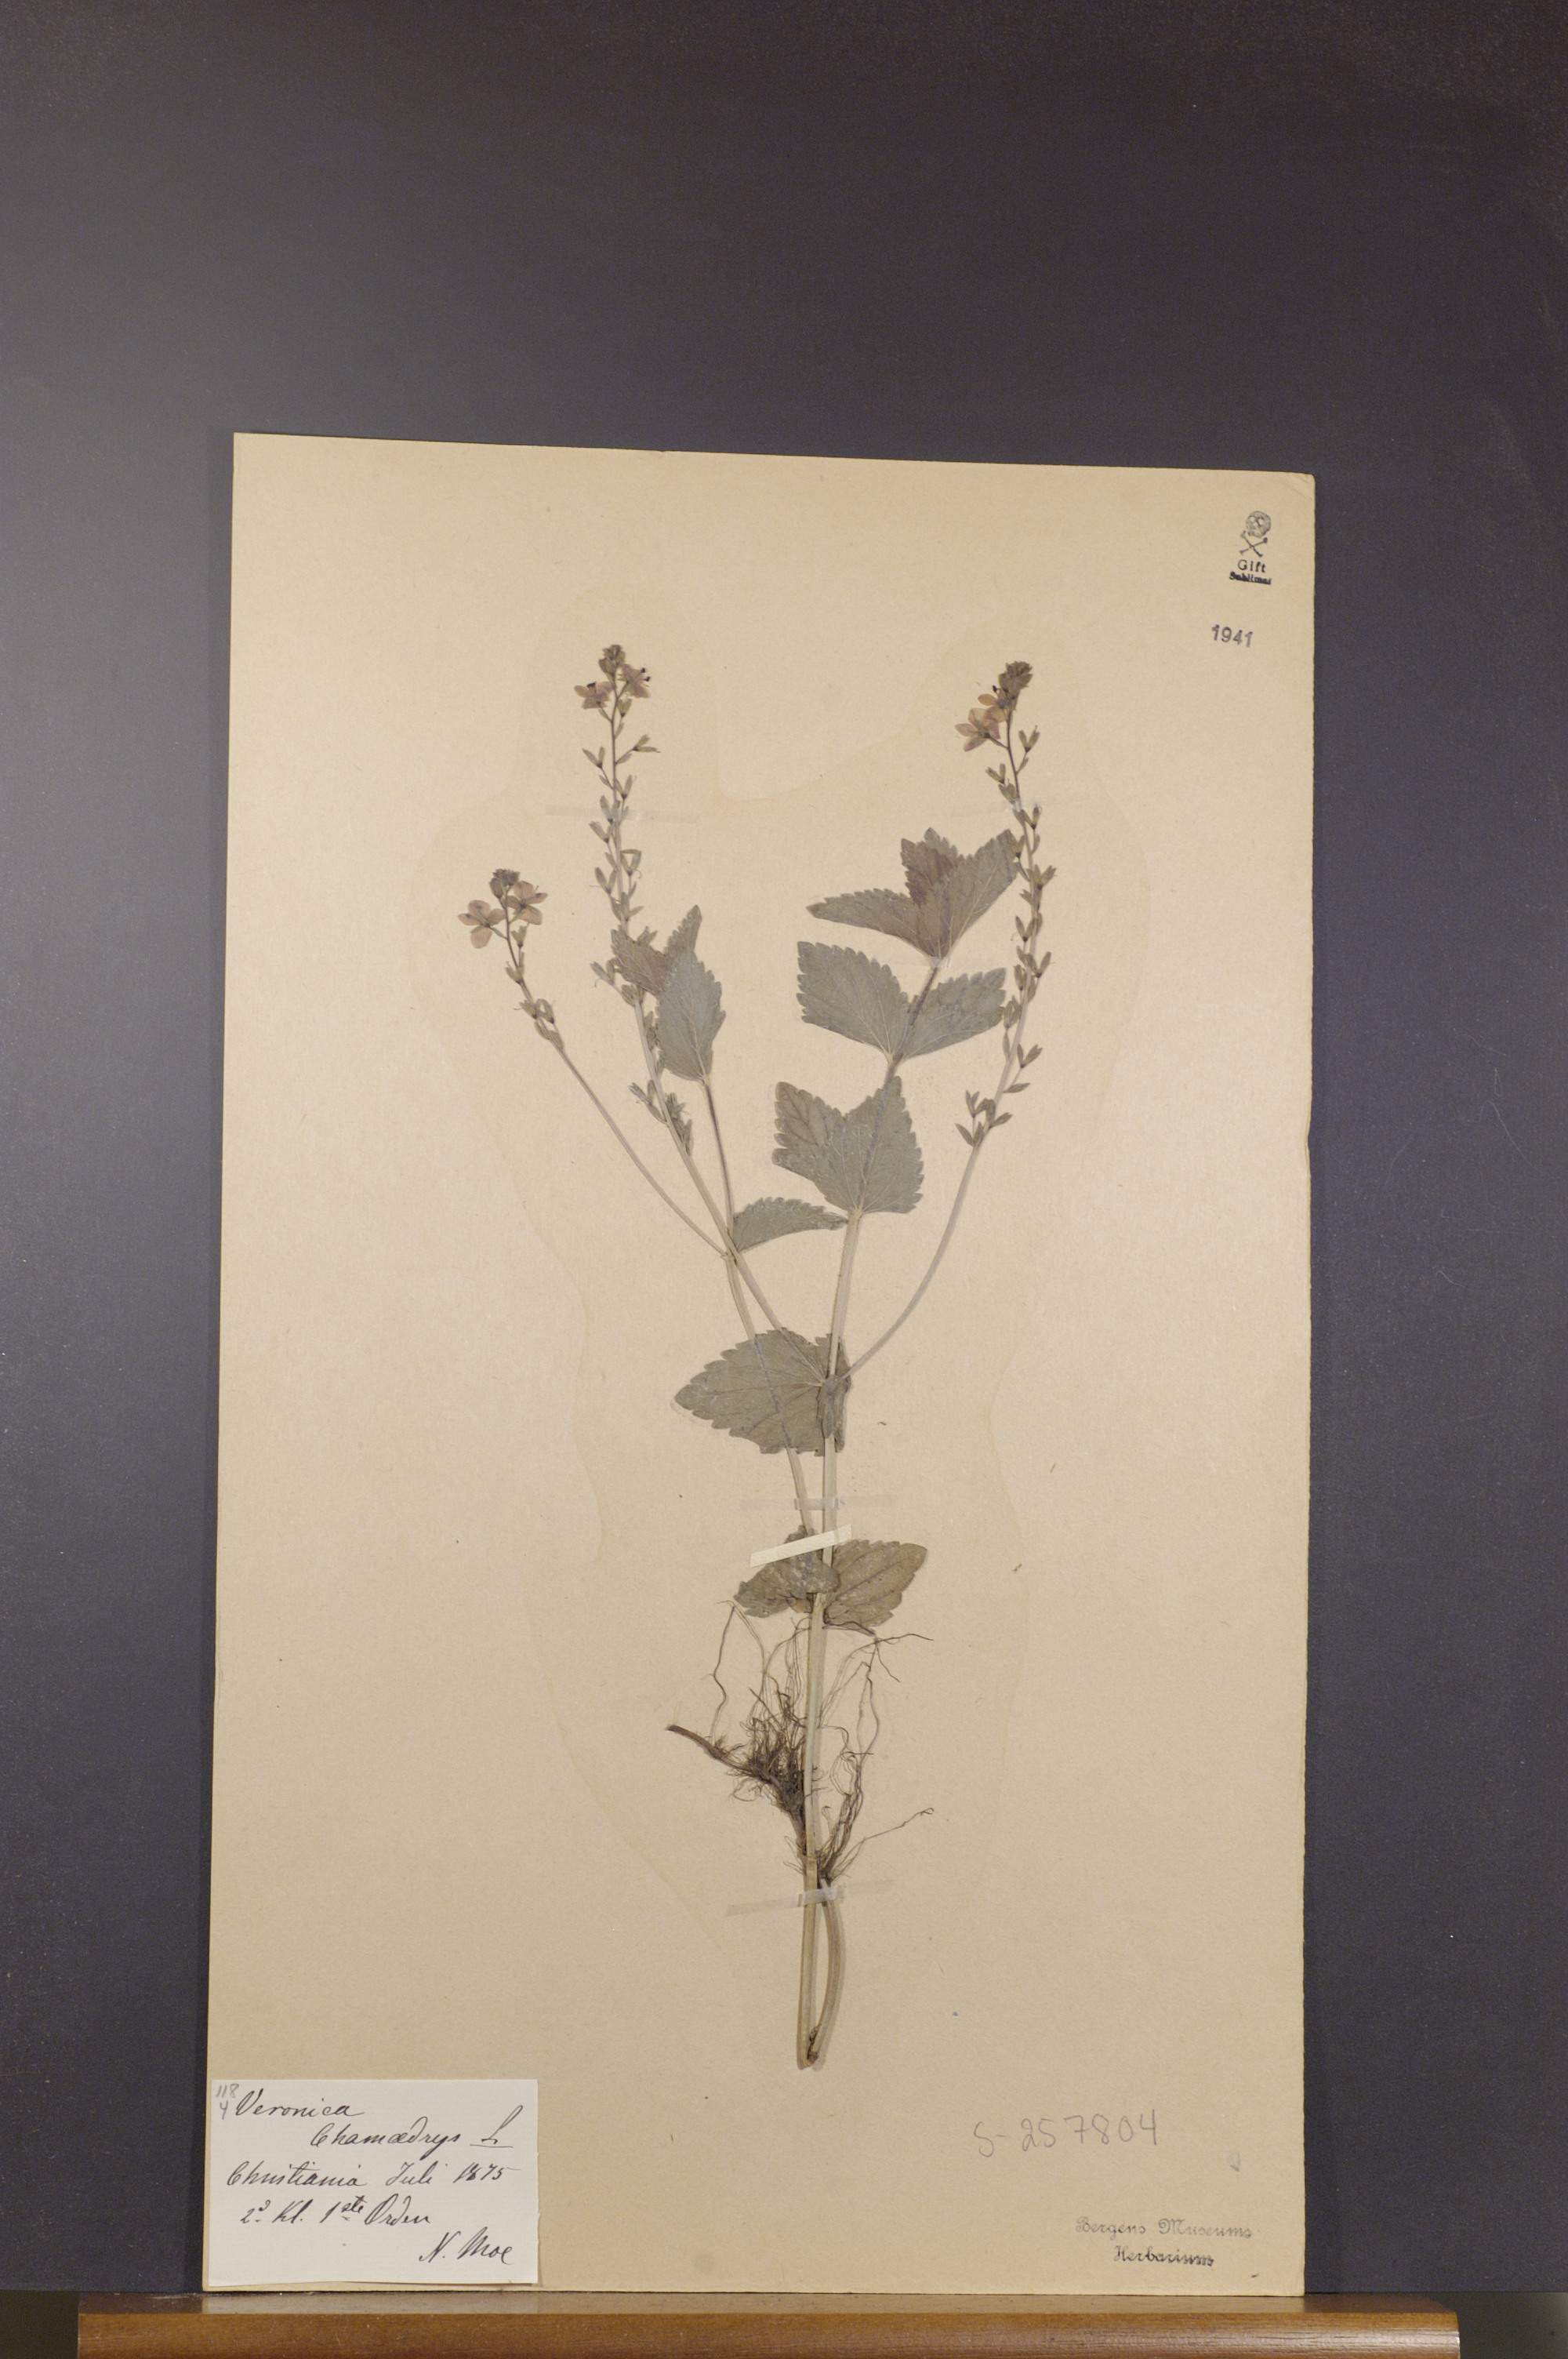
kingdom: Plantae
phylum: Tracheophyta
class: Magnoliopsida
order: Lamiales
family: Plantaginaceae
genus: Veronica
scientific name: Veronica chamaedrys
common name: Germander speedwell
